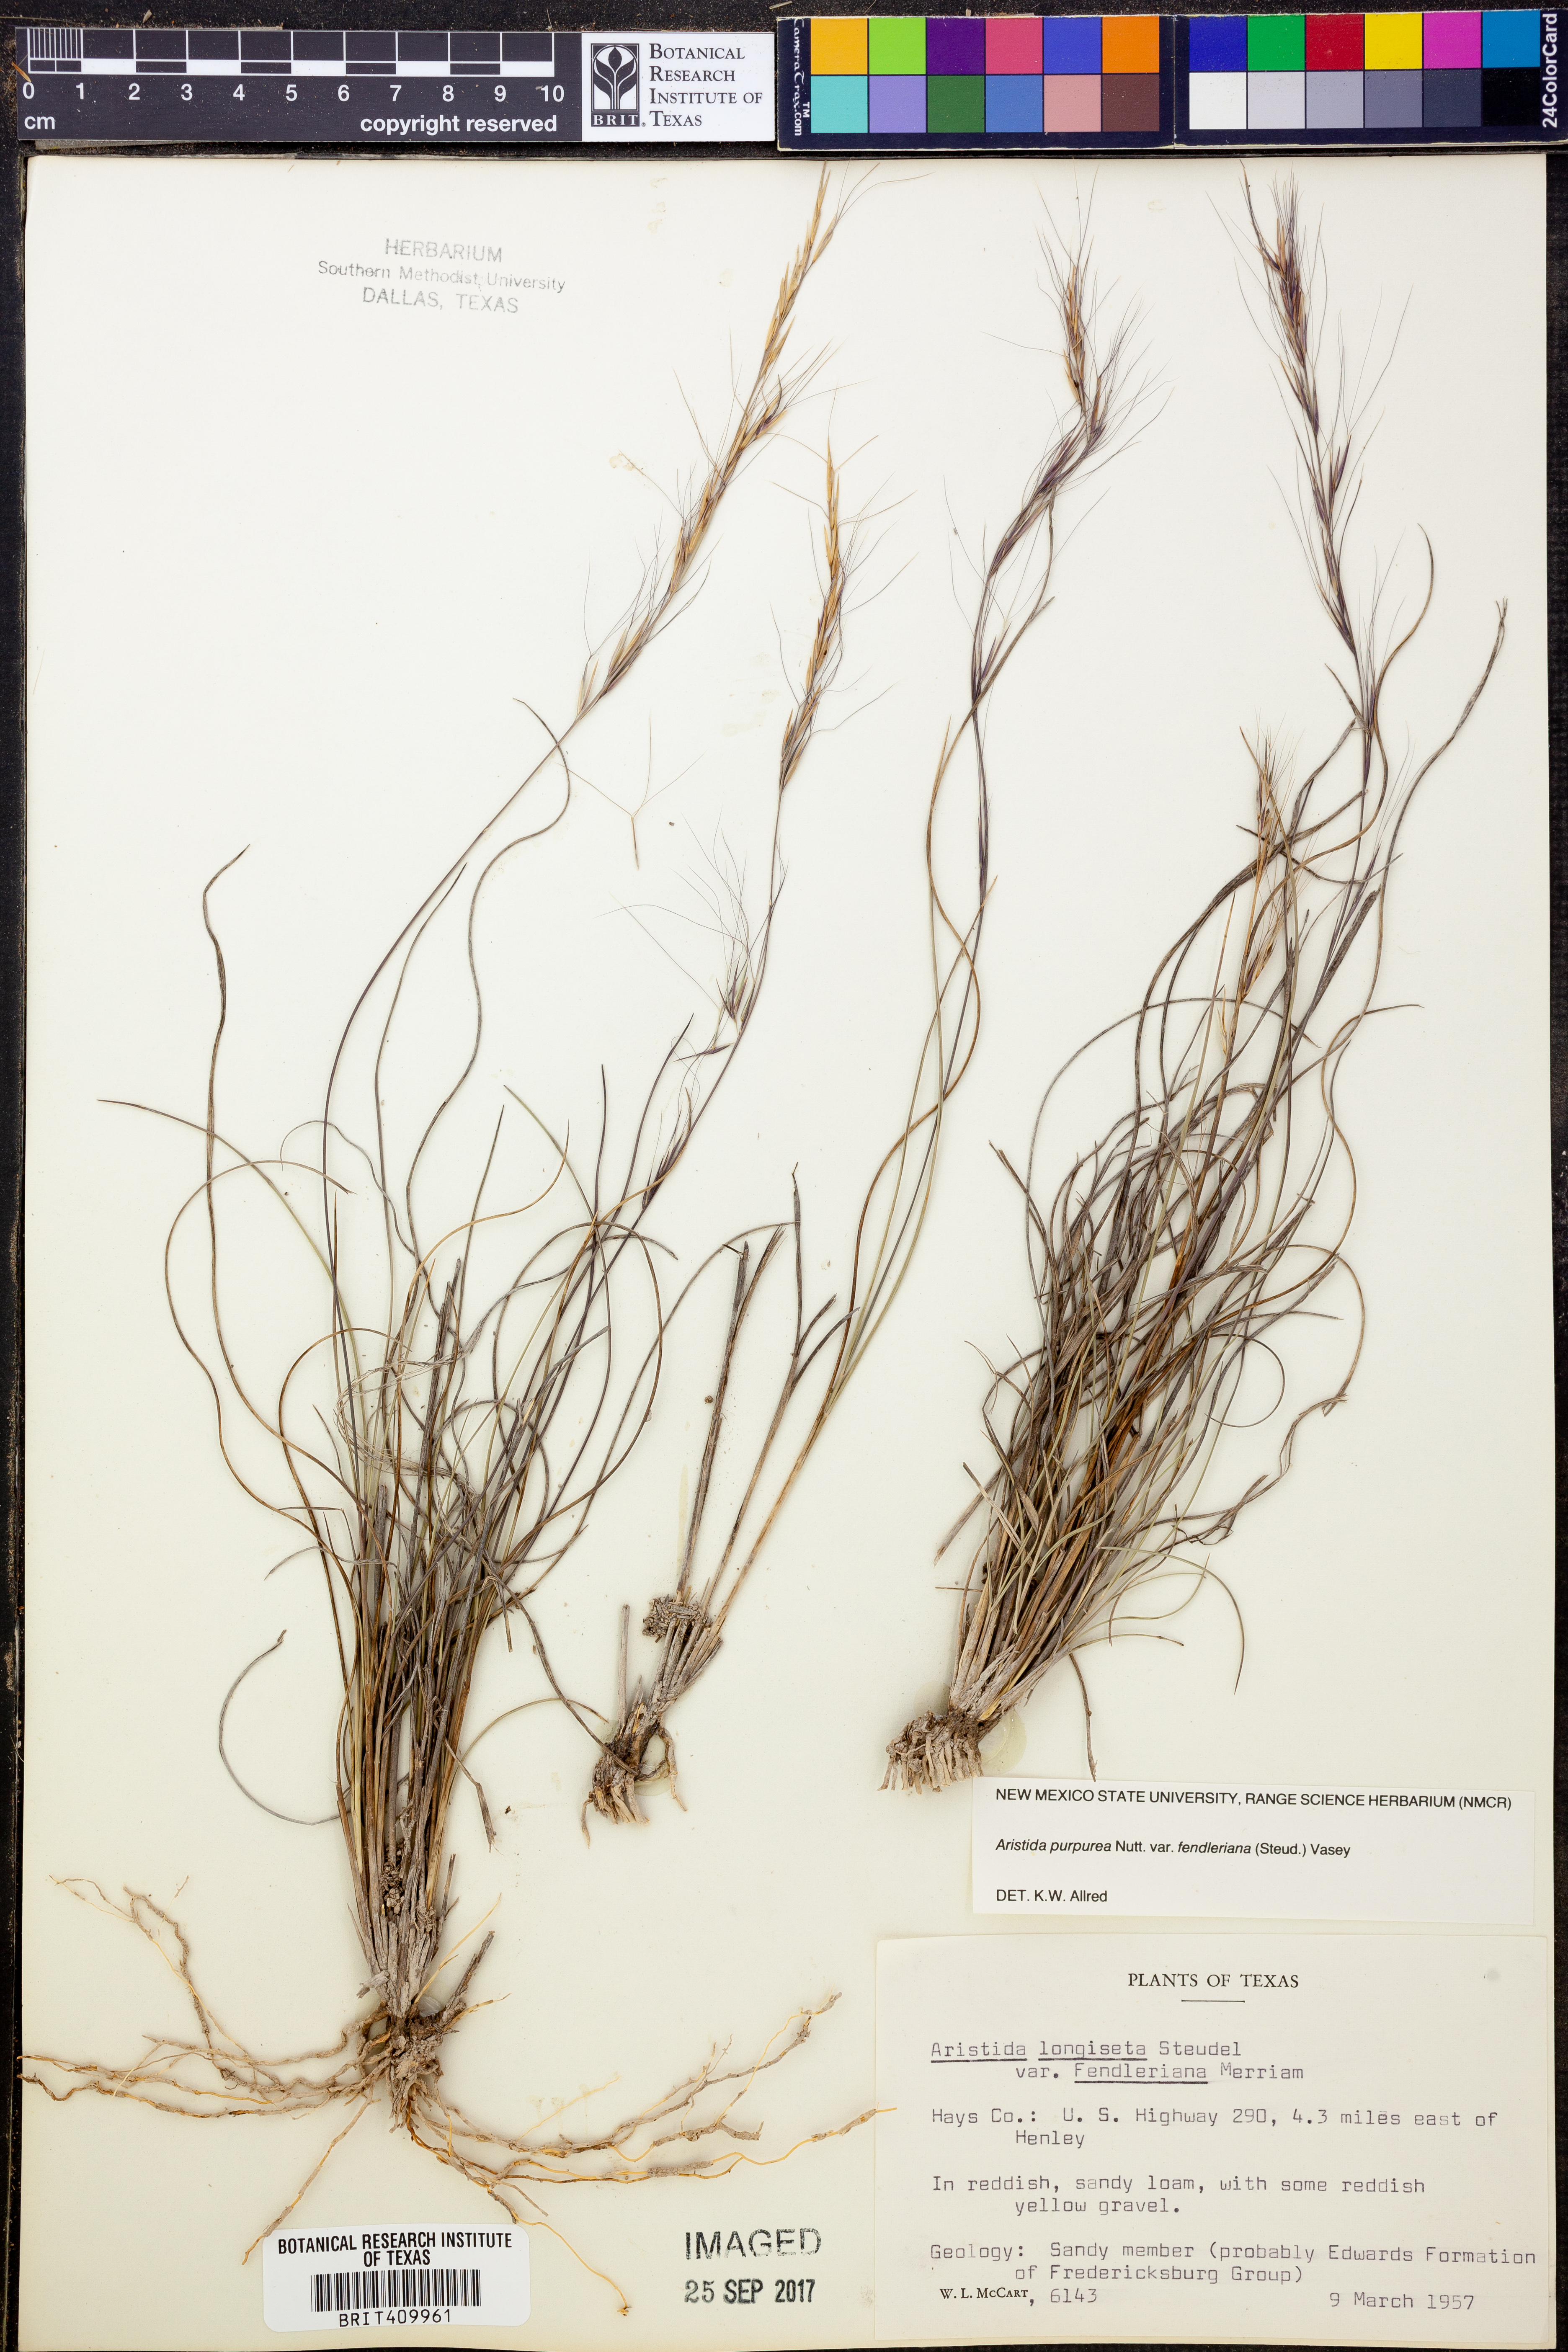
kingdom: Plantae
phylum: Tracheophyta
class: Liliopsida
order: Poales
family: Poaceae
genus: Aristida
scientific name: Aristida fendleriana
